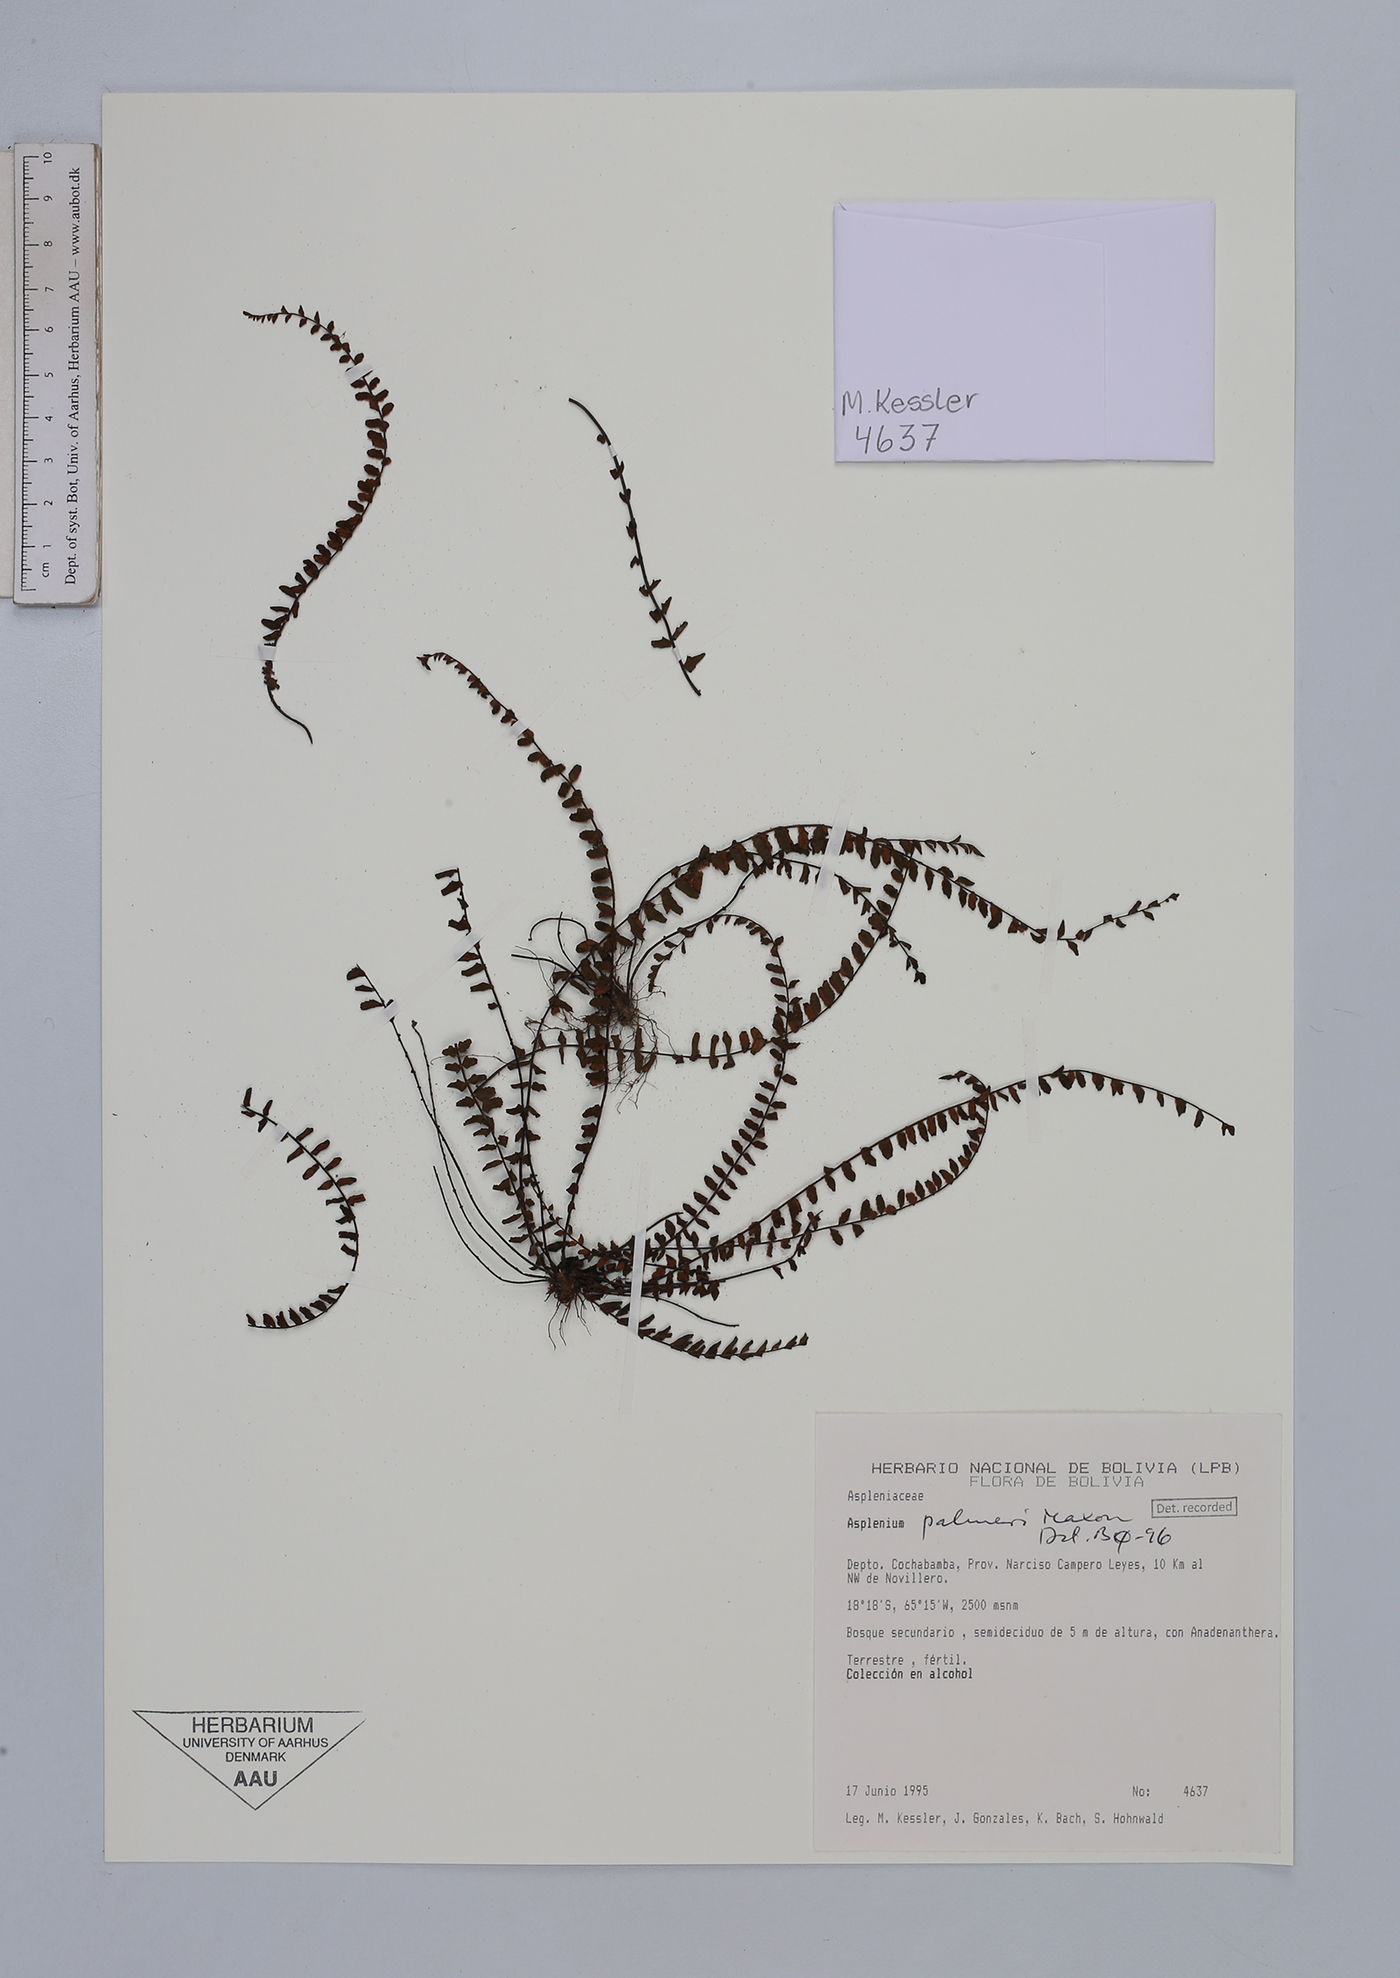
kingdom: Plantae
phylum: Tracheophyta
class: Polypodiopsida
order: Polypodiales
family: Aspleniaceae
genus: Asplenium
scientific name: Asplenium palmeri
